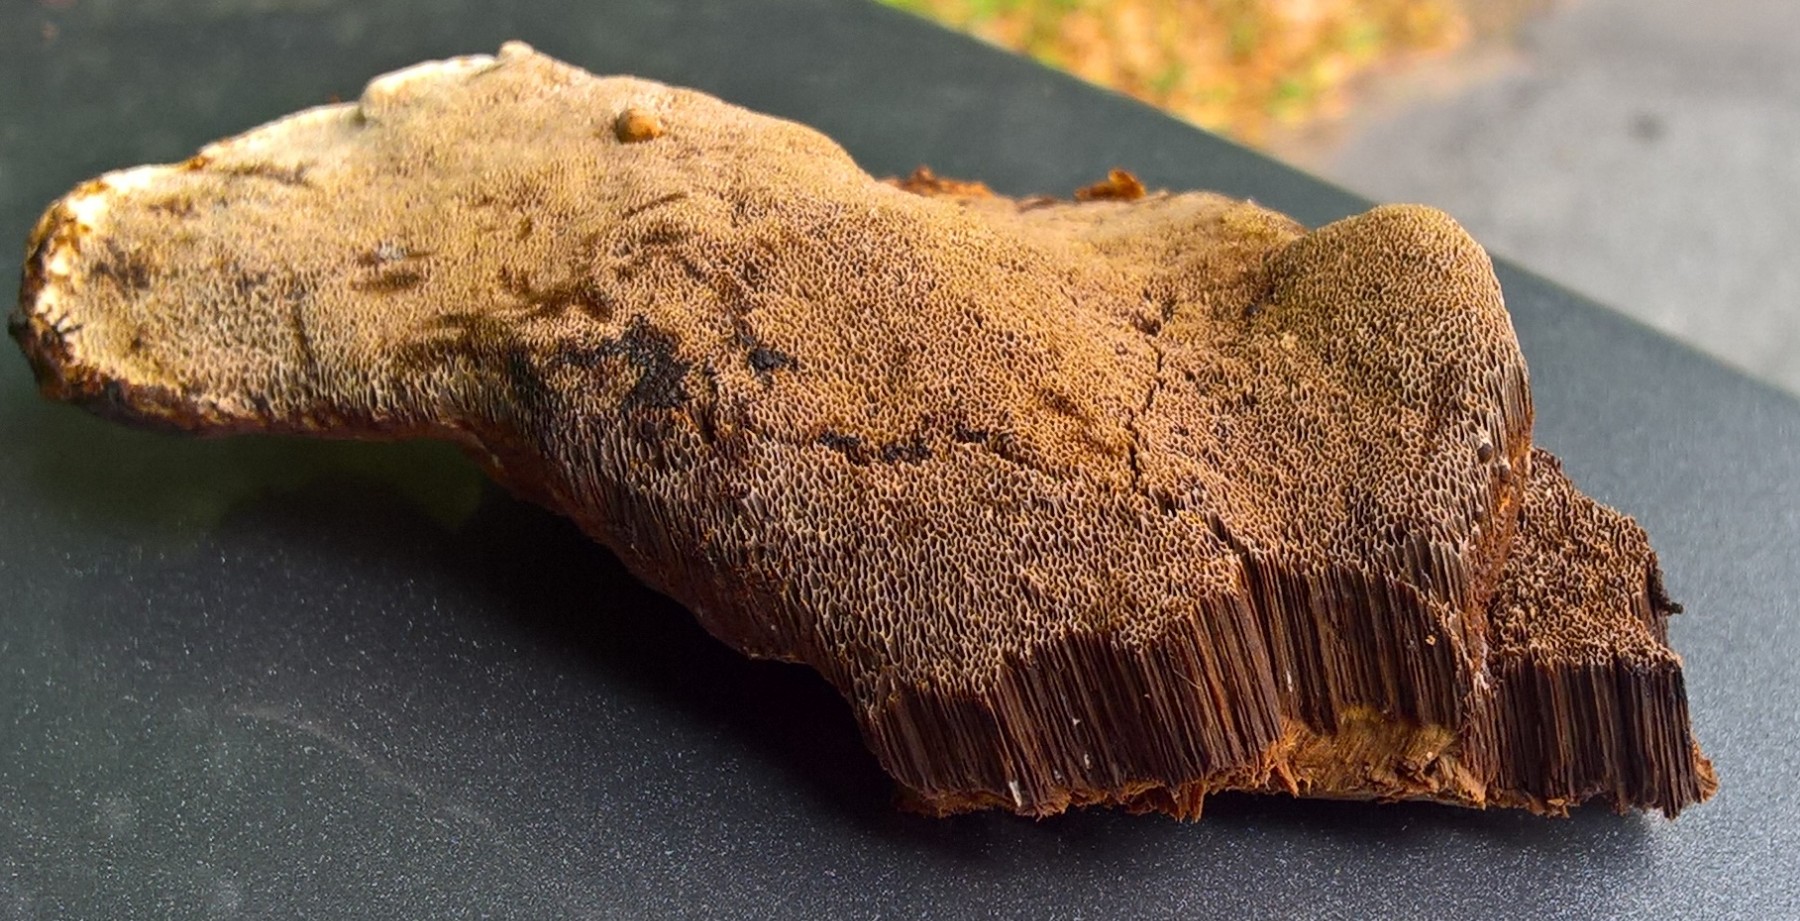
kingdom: Fungi
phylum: Basidiomycota
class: Agaricomycetes
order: Hymenochaetales
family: Hymenochaetaceae
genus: Inonotus
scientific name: Inonotus cuticularis
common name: kroghåret spejlporesvamp
